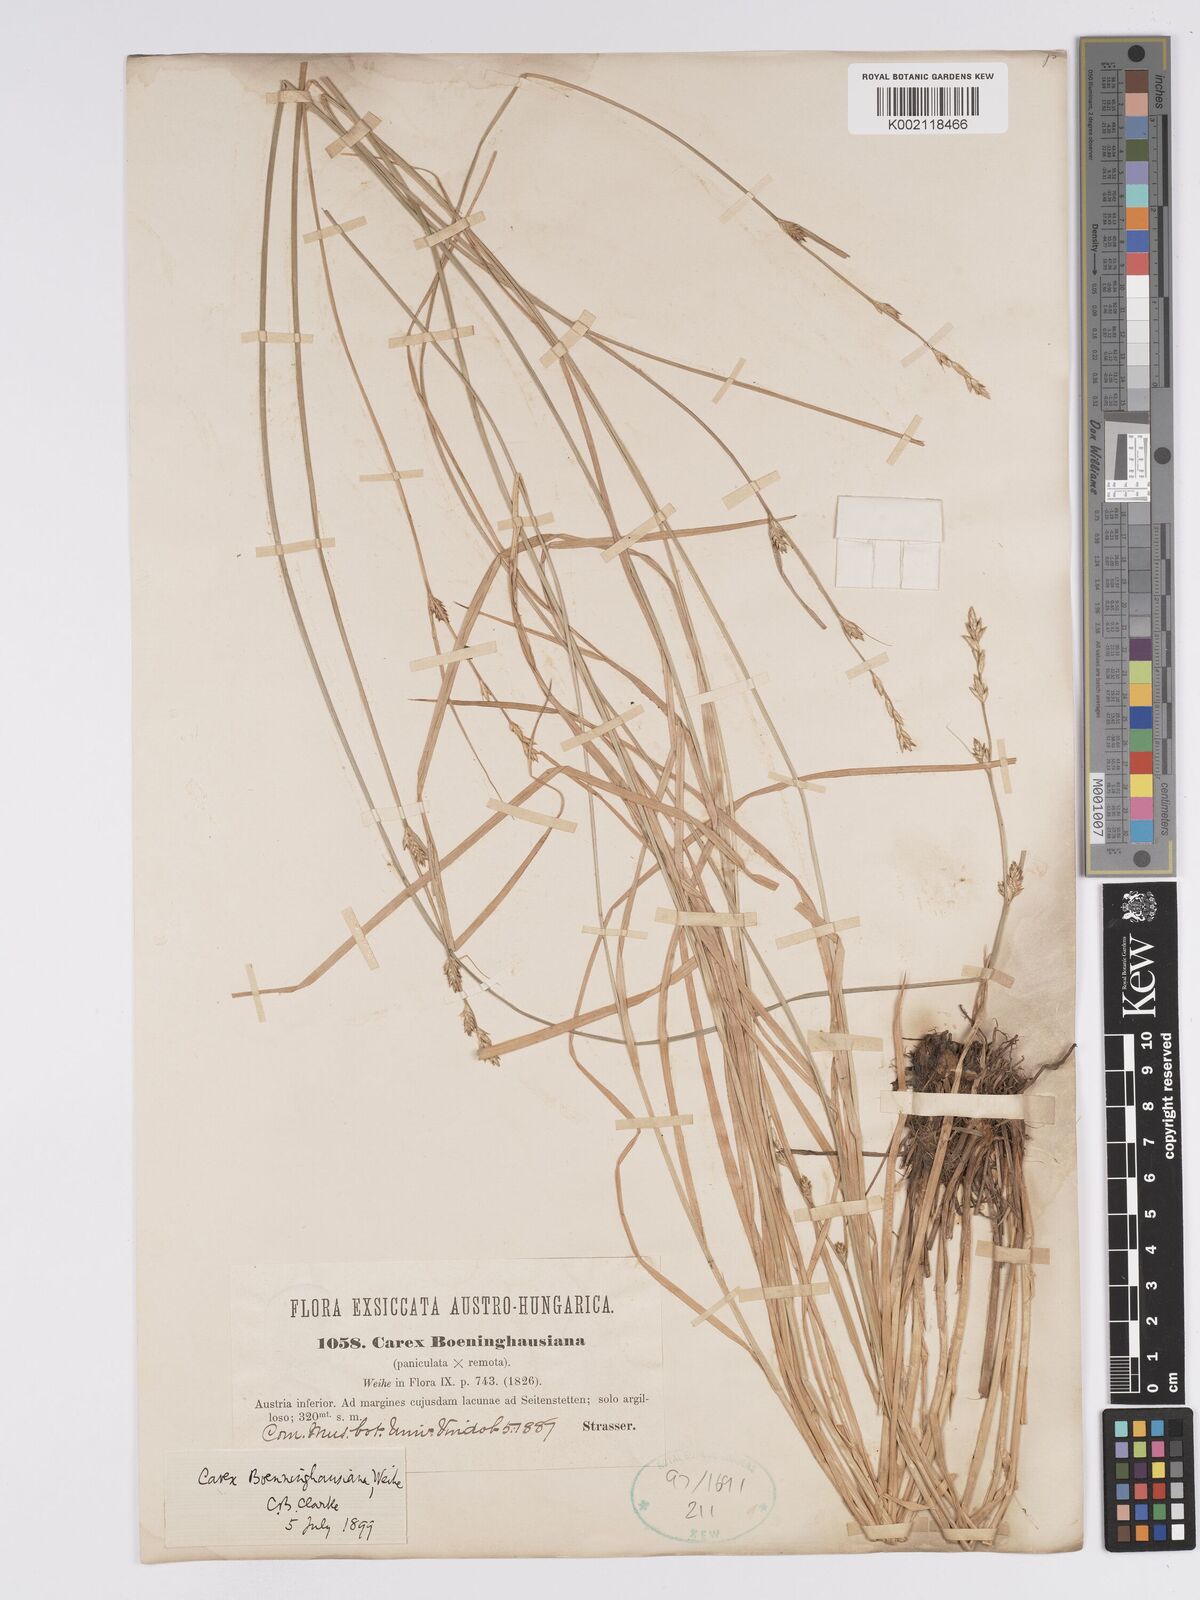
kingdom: Plantae
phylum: Tracheophyta
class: Liliopsida
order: Poales
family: Cyperaceae
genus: Carex
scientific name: Carex boenninghausiana
